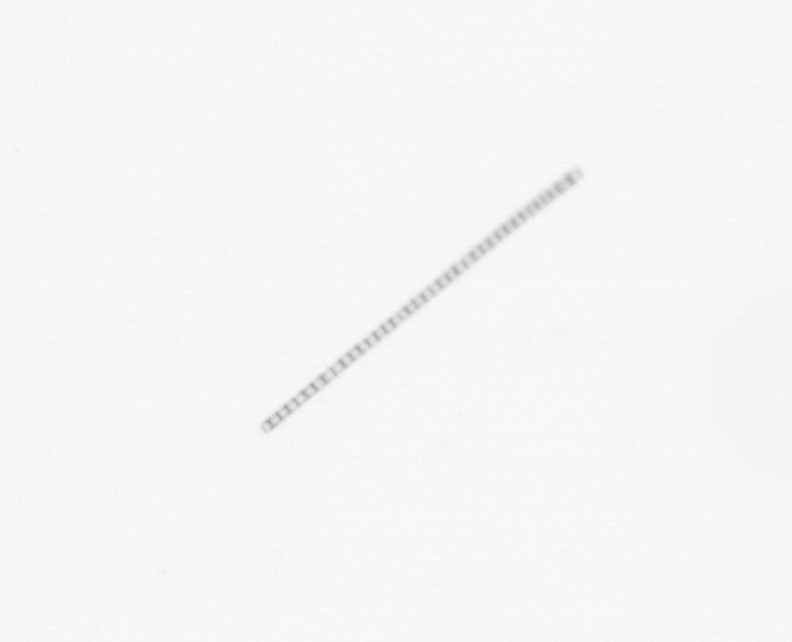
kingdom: Chromista
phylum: Ochrophyta
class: Bacillariophyceae
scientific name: Bacillariophyceae
